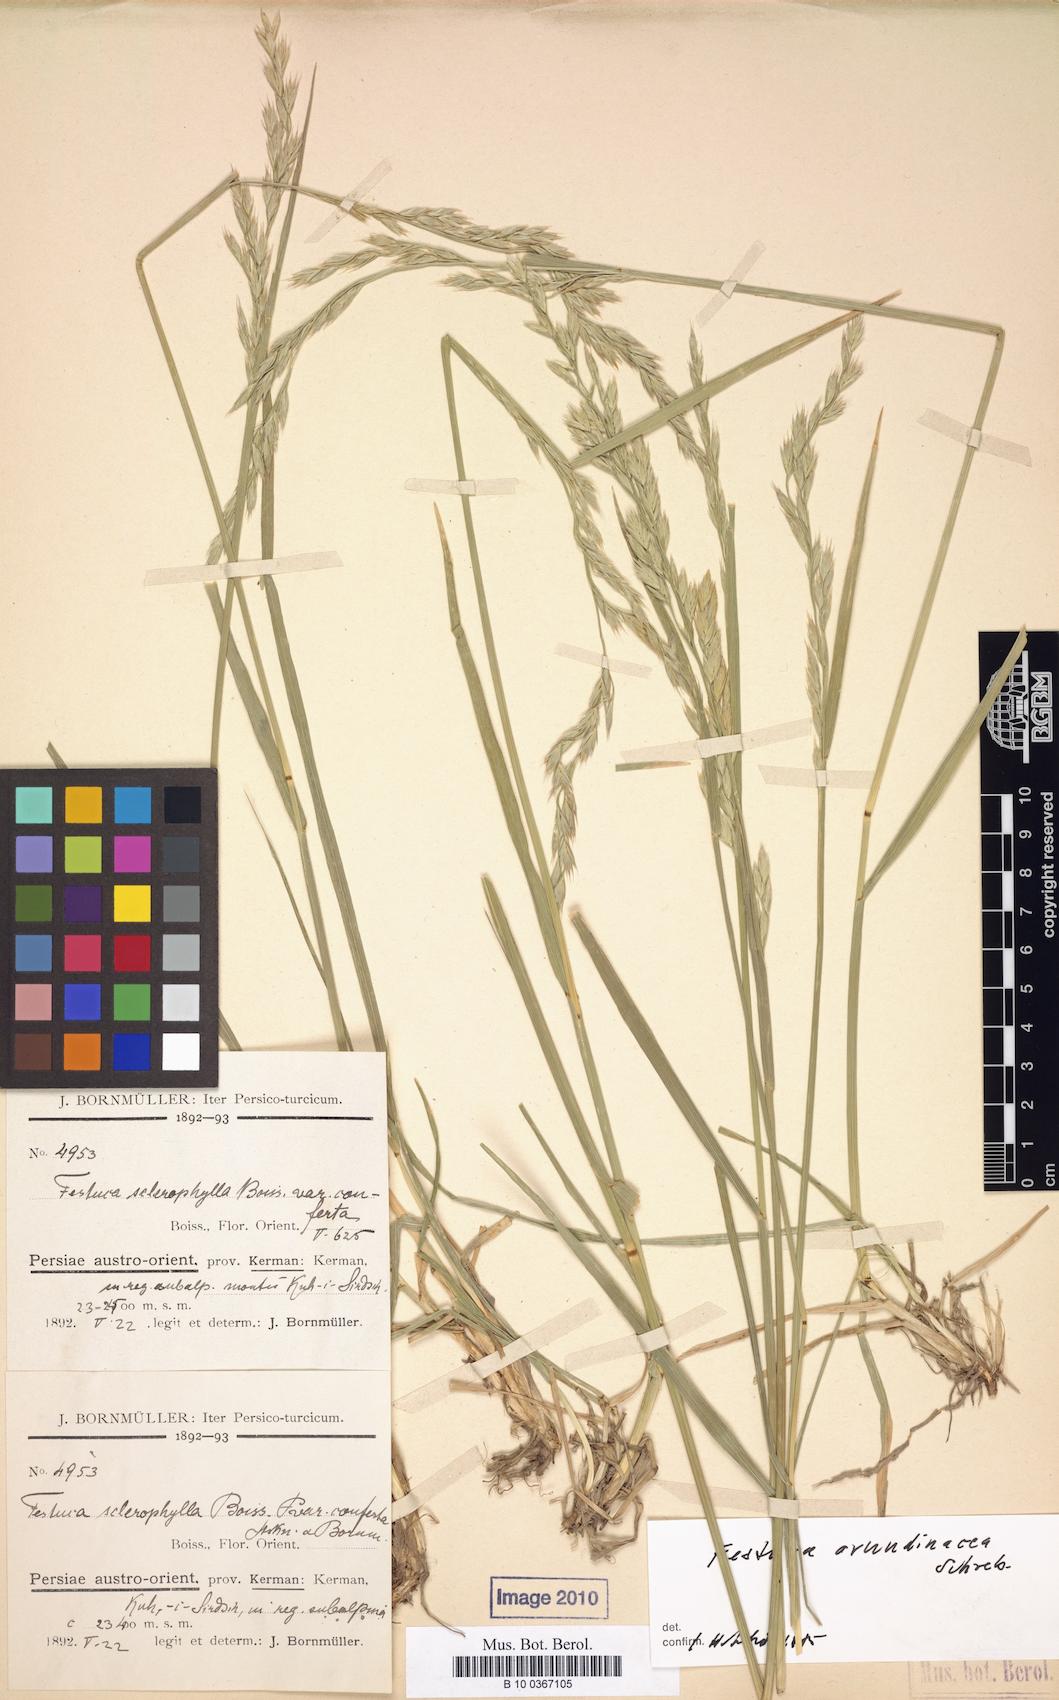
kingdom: Plantae
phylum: Tracheophyta
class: Liliopsida
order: Poales
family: Poaceae
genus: Festuca
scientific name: Festuca pseudosclerophylla
